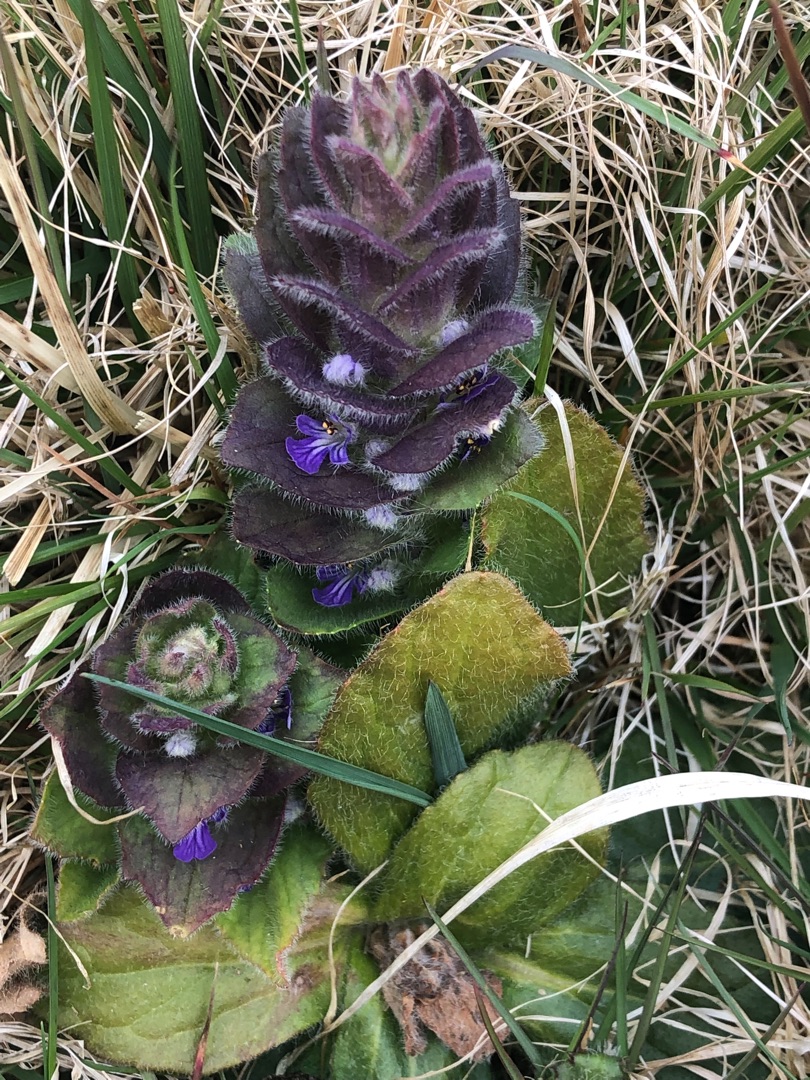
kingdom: Plantae
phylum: Tracheophyta
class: Magnoliopsida
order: Lamiales
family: Lamiaceae
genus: Ajuga
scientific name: Ajuga pyramidalis
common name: Pyramide-læbeløs
